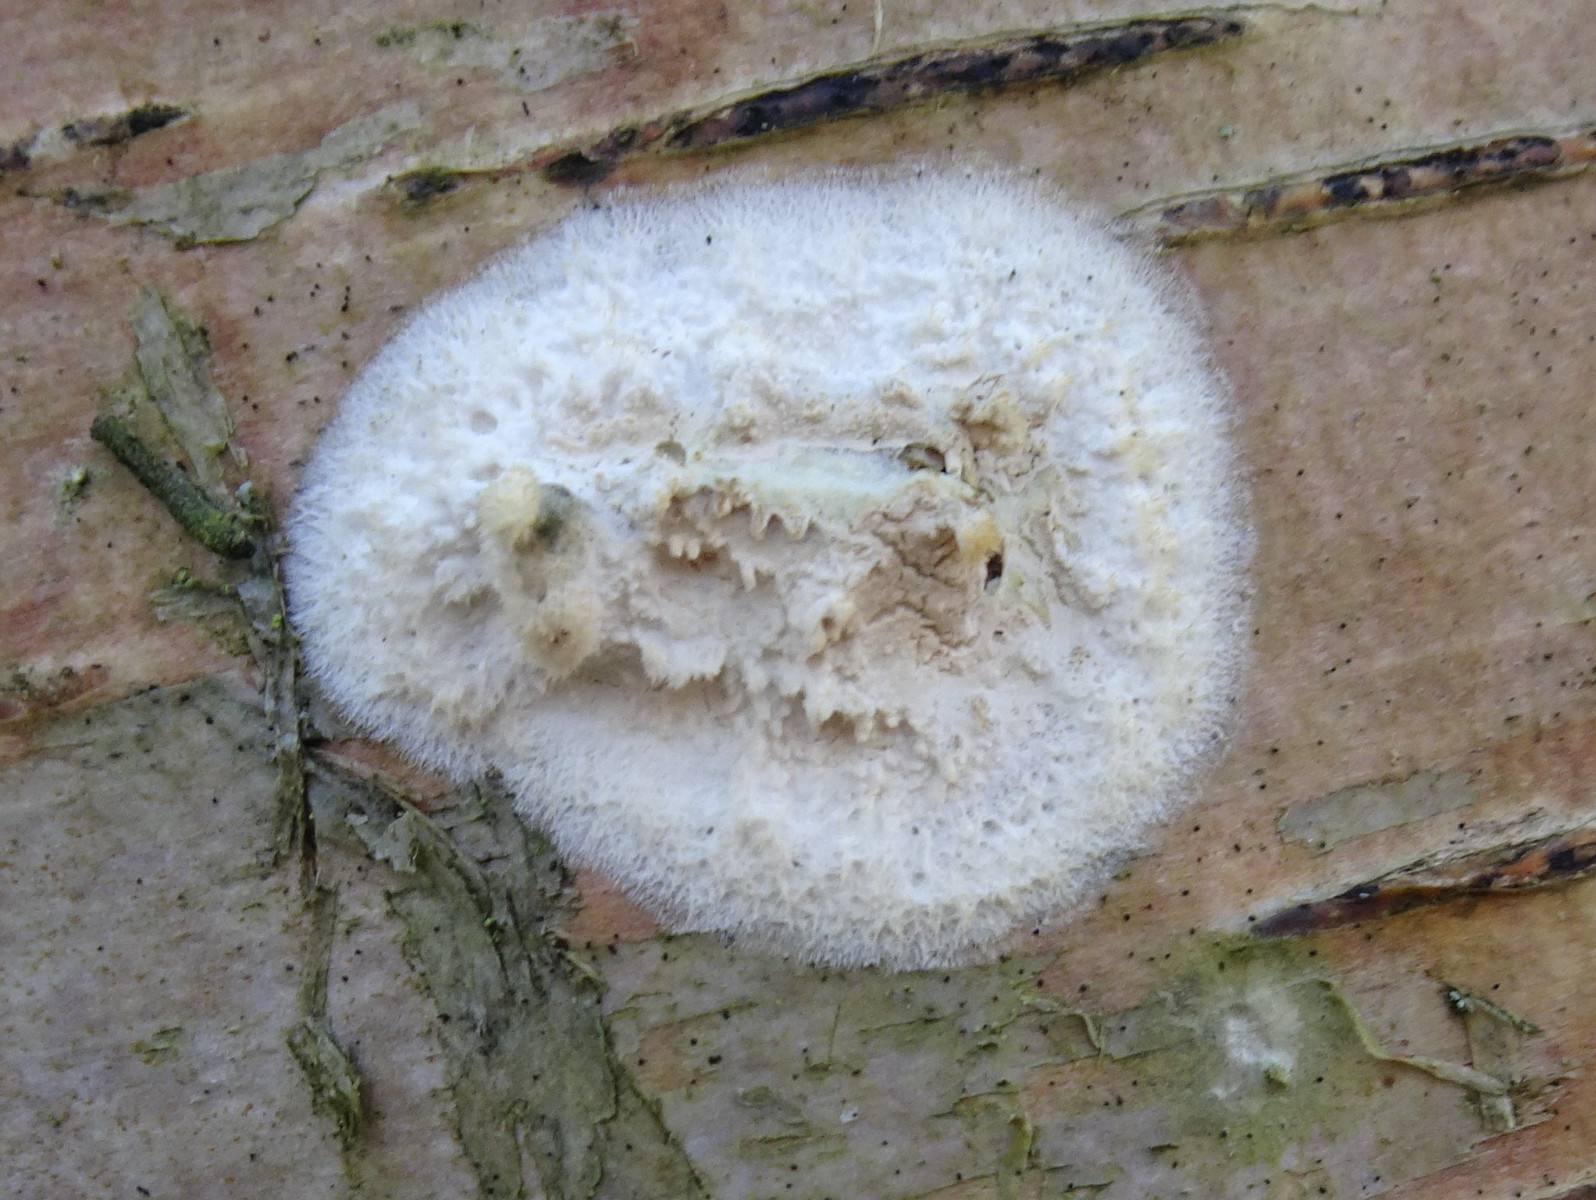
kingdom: Fungi
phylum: Basidiomycota
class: Agaricomycetes
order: Hymenochaetales
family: Schizoporaceae
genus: Xylodon
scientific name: Xylodon radula
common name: grovtandet kalkskind
